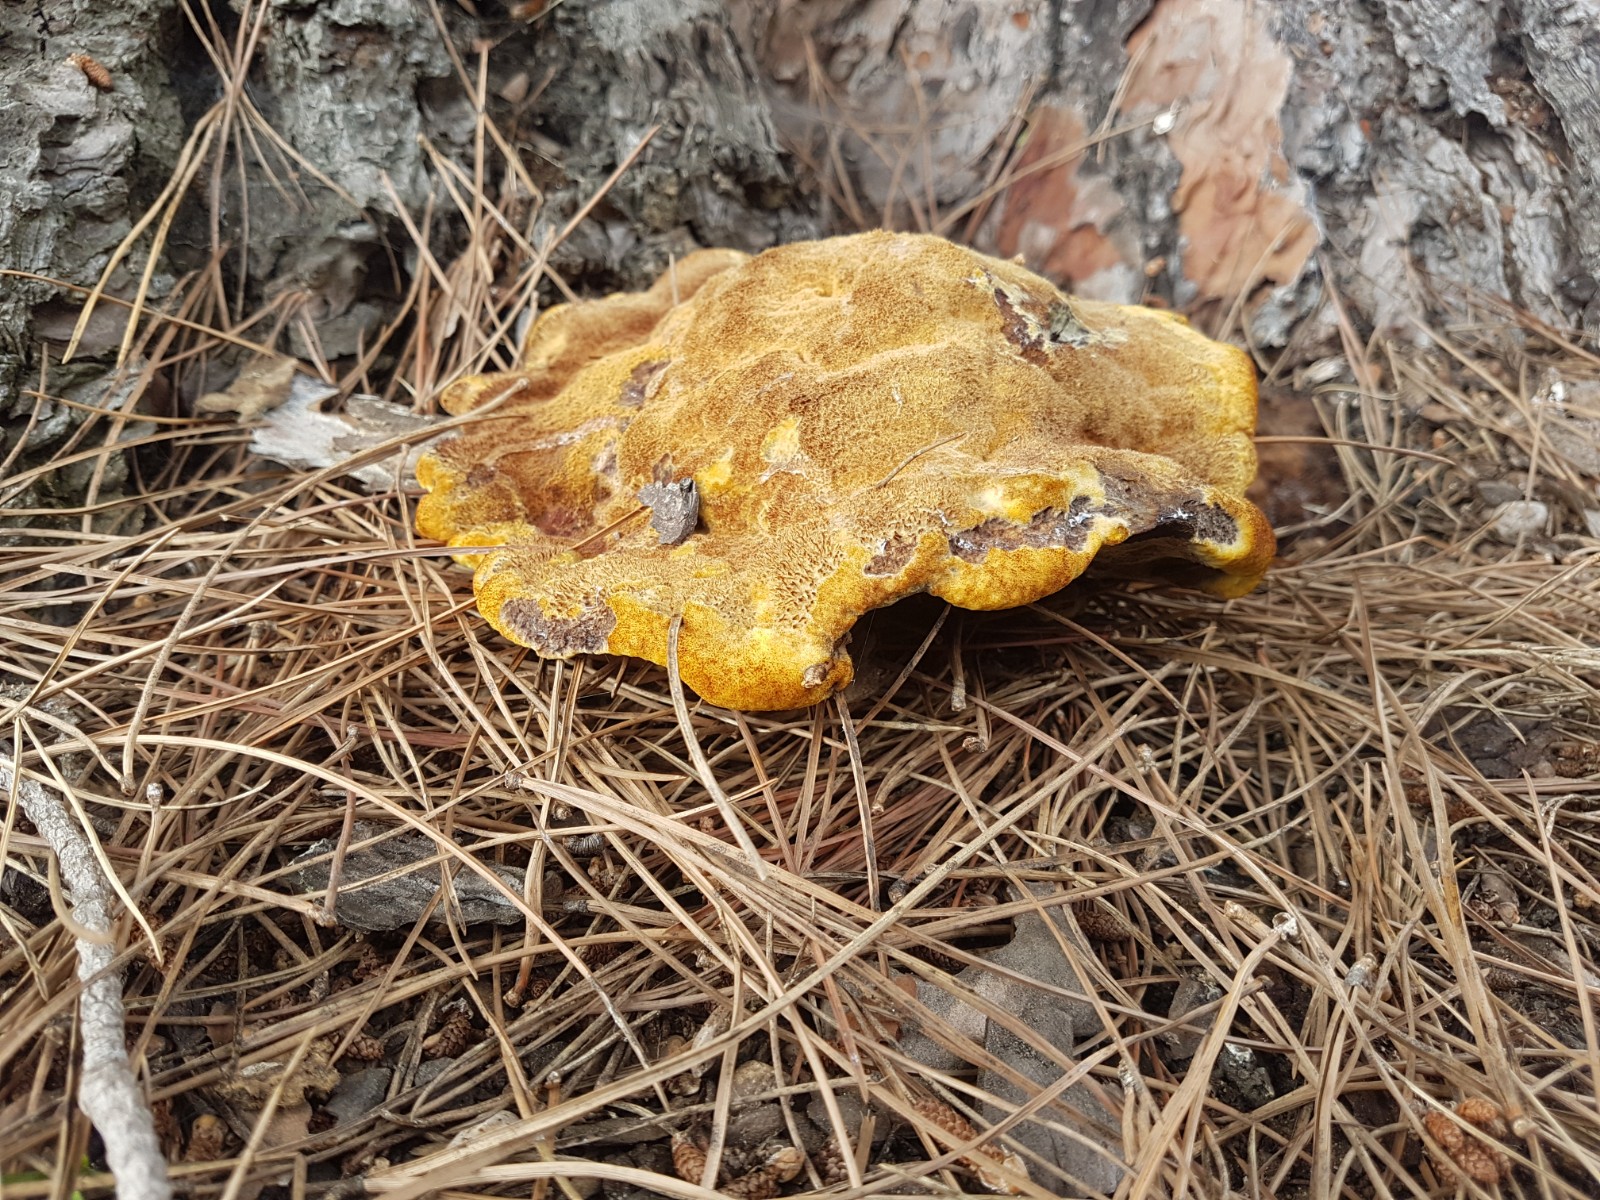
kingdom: Fungi
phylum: Basidiomycota
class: Agaricomycetes
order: Polyporales
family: Laetiporaceae
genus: Phaeolus
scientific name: Phaeolus schweinitzii
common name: brunporesvamp
